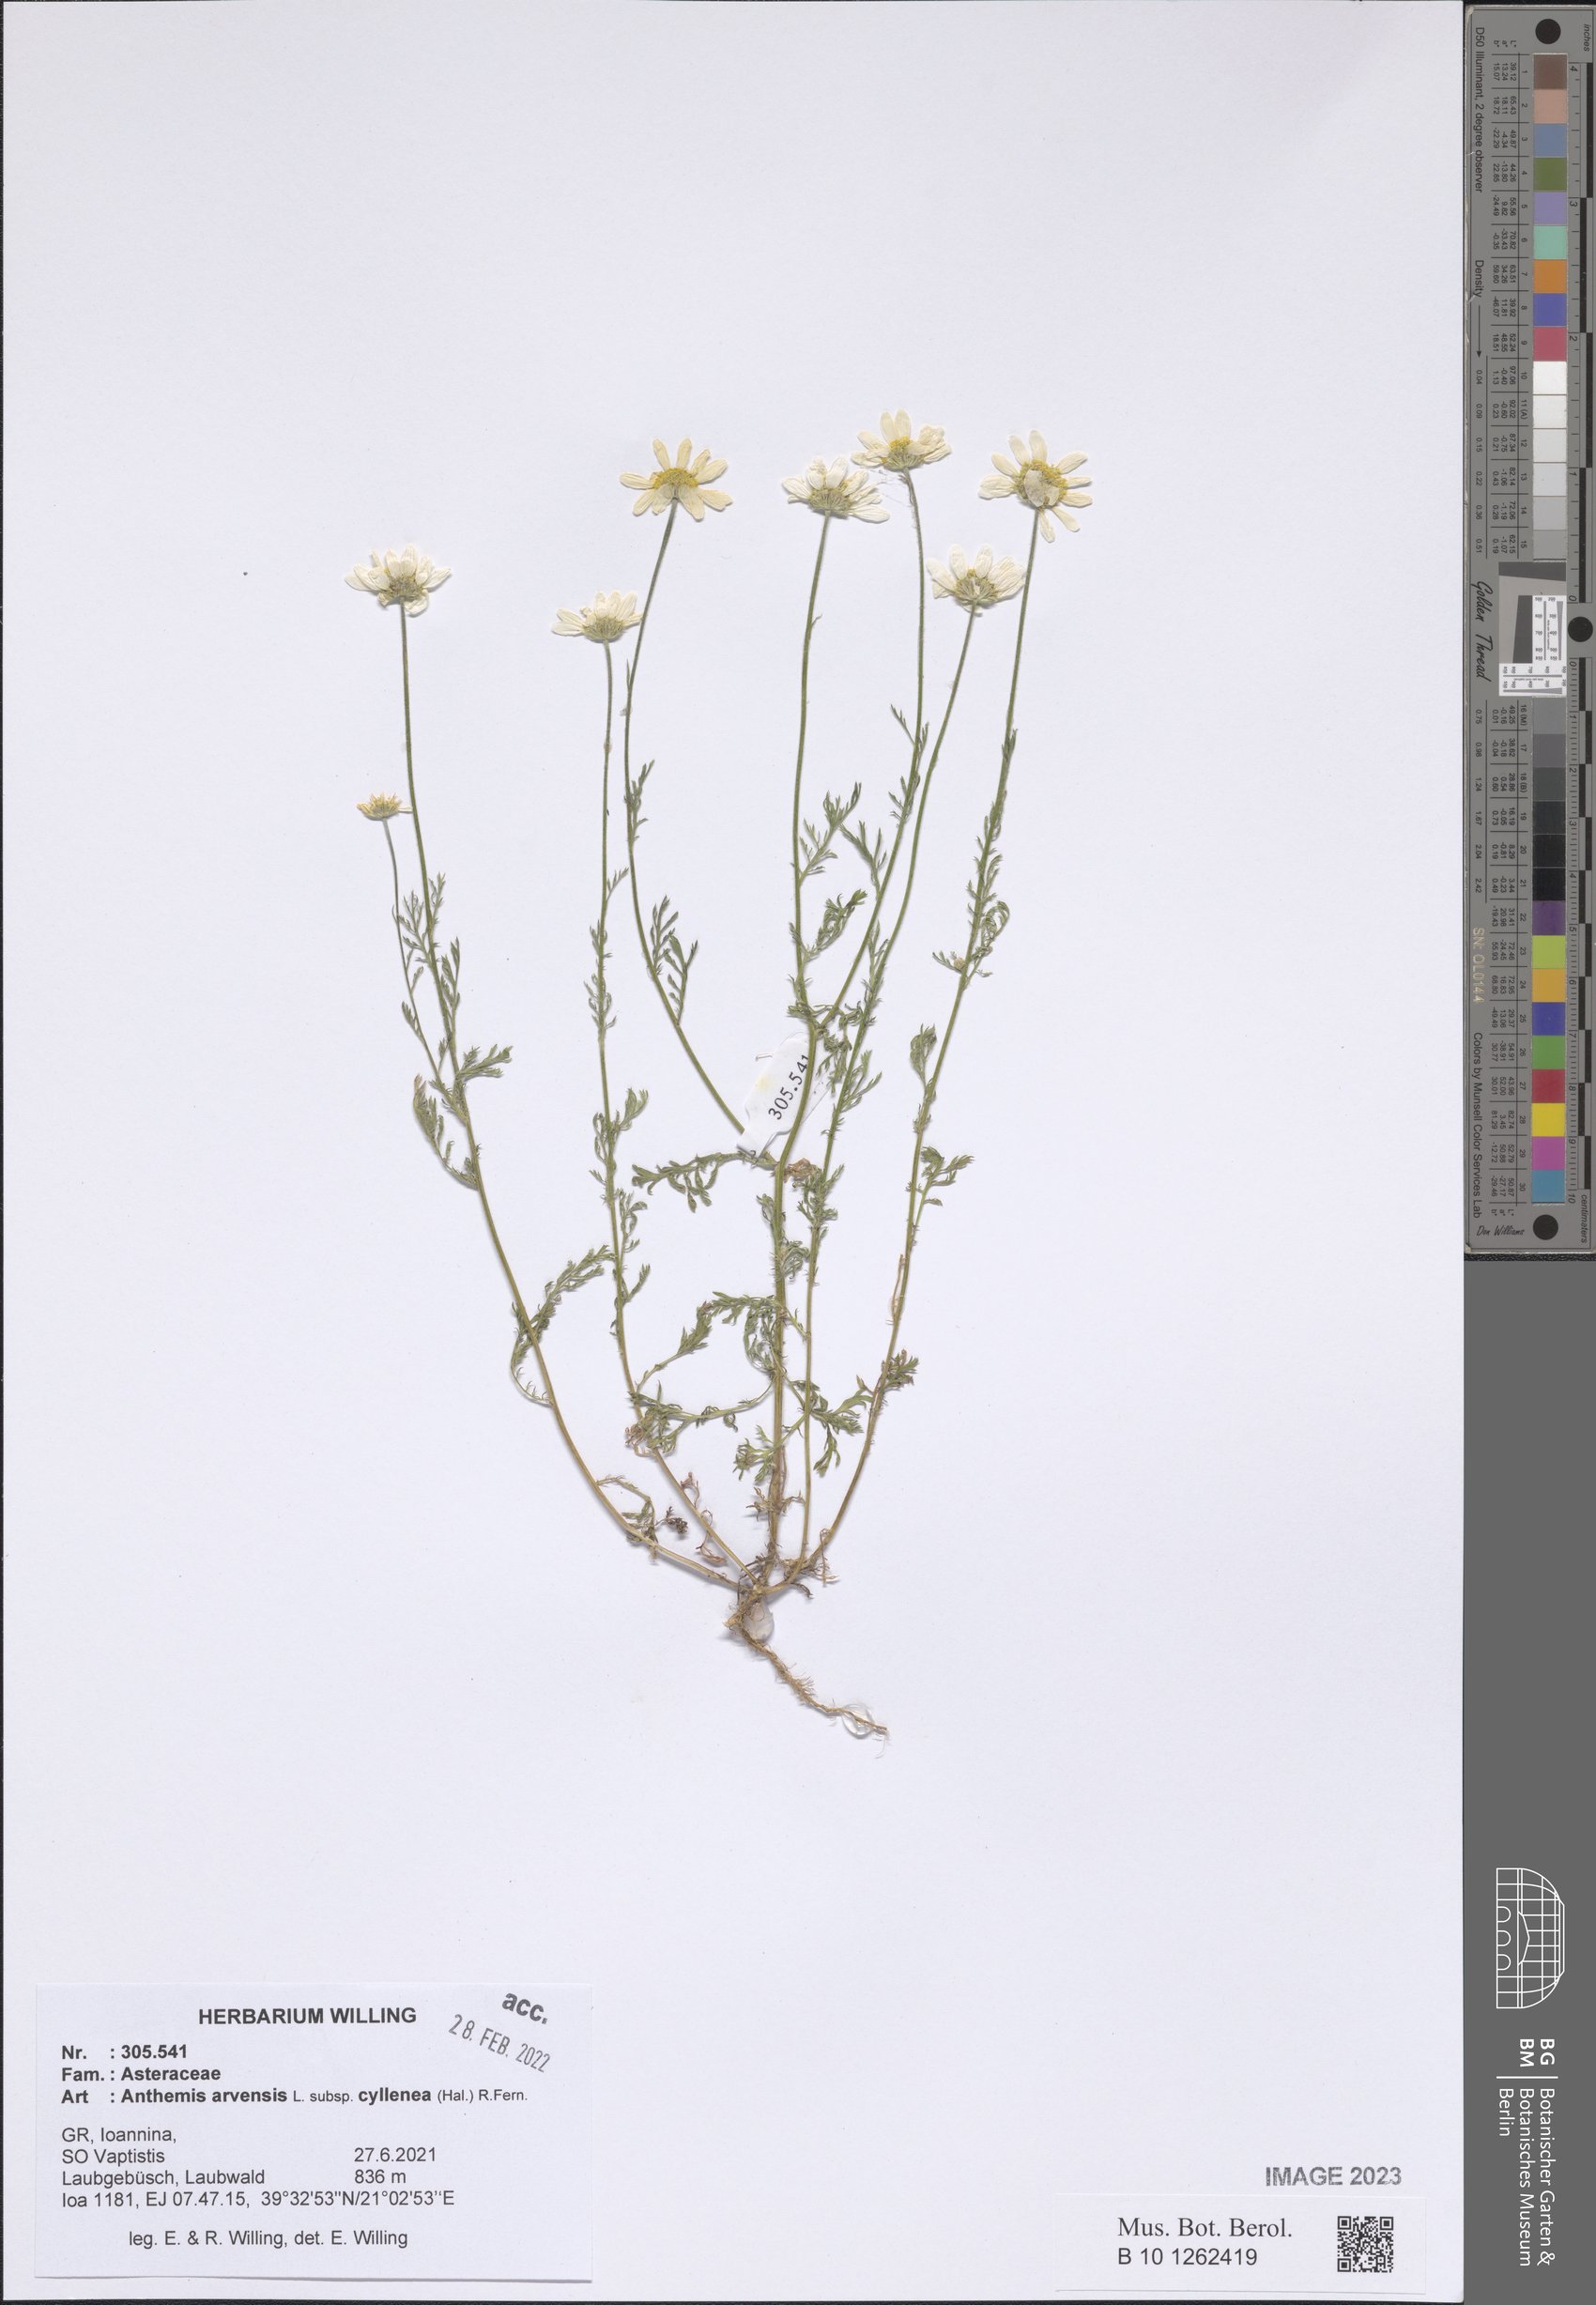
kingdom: Plantae
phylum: Tracheophyta
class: Magnoliopsida
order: Asterales
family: Asteraceae
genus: Anthemis
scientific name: Anthemis arvensis
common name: Corn chamomile
